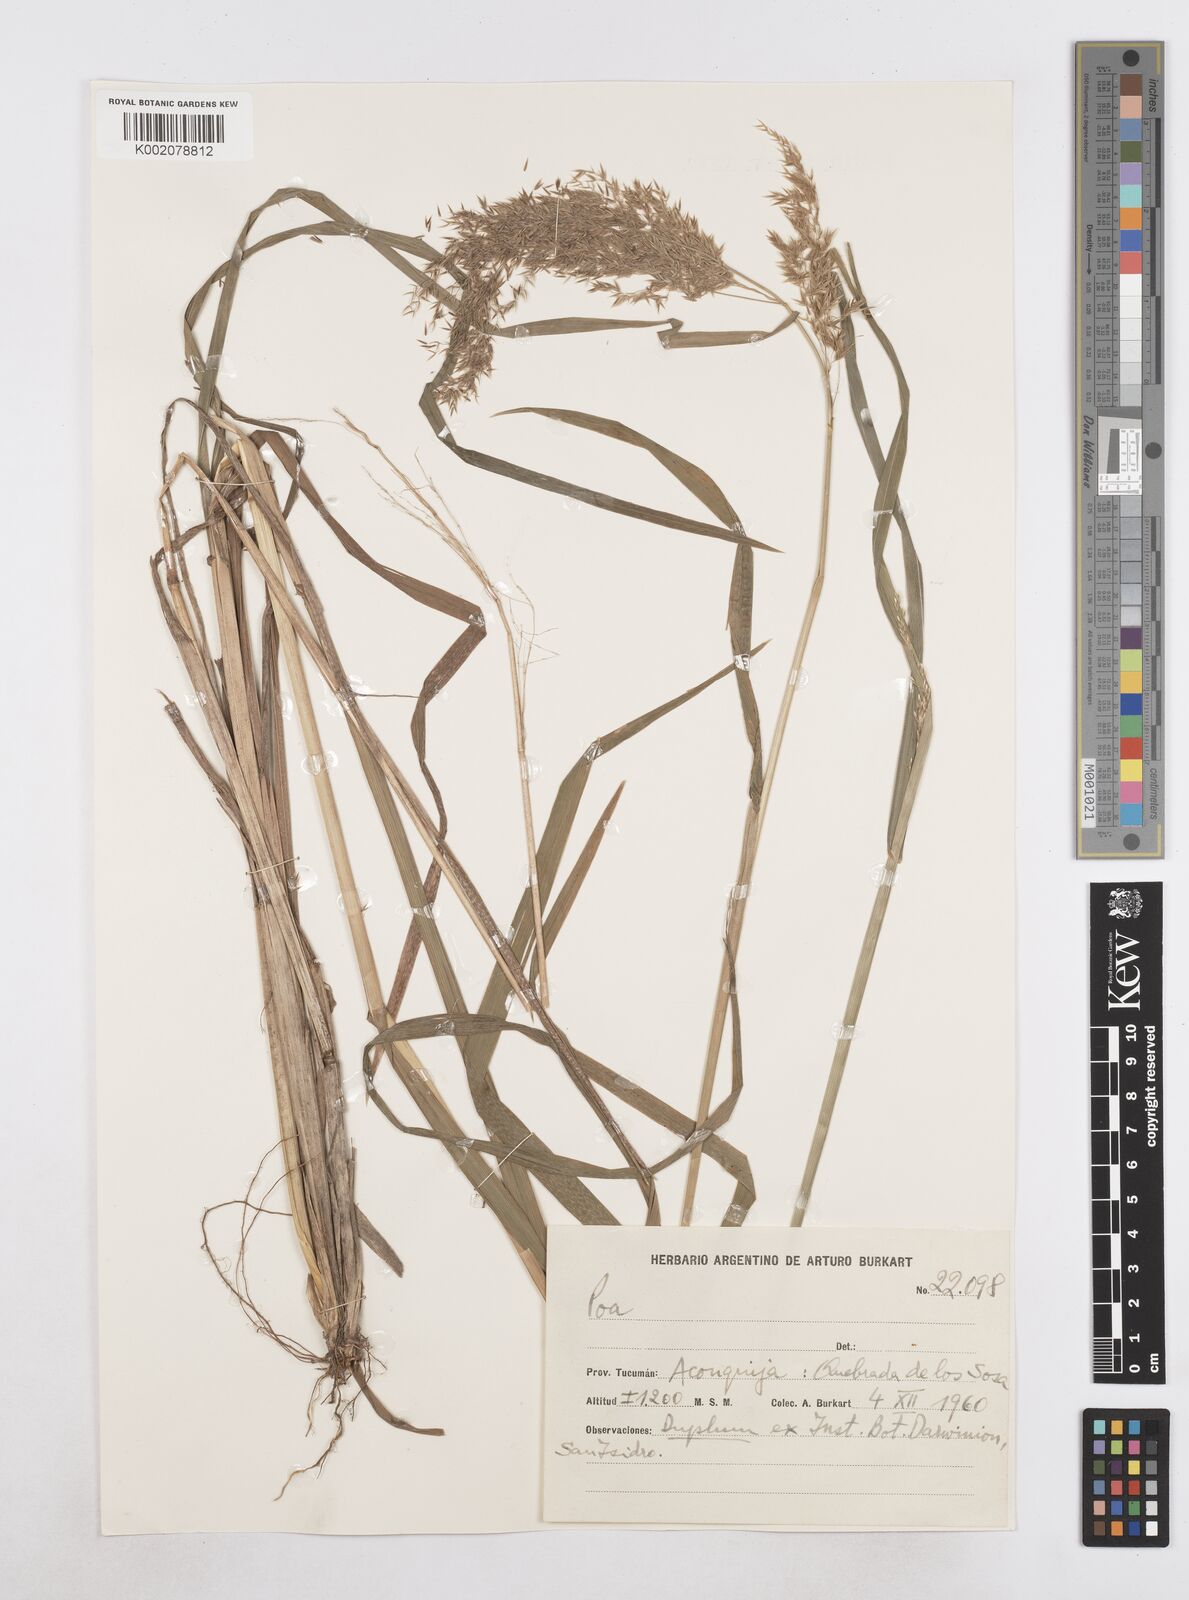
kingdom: Plantae
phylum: Tracheophyta
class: Liliopsida
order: Poales
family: Poaceae
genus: Poa
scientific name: Poa
